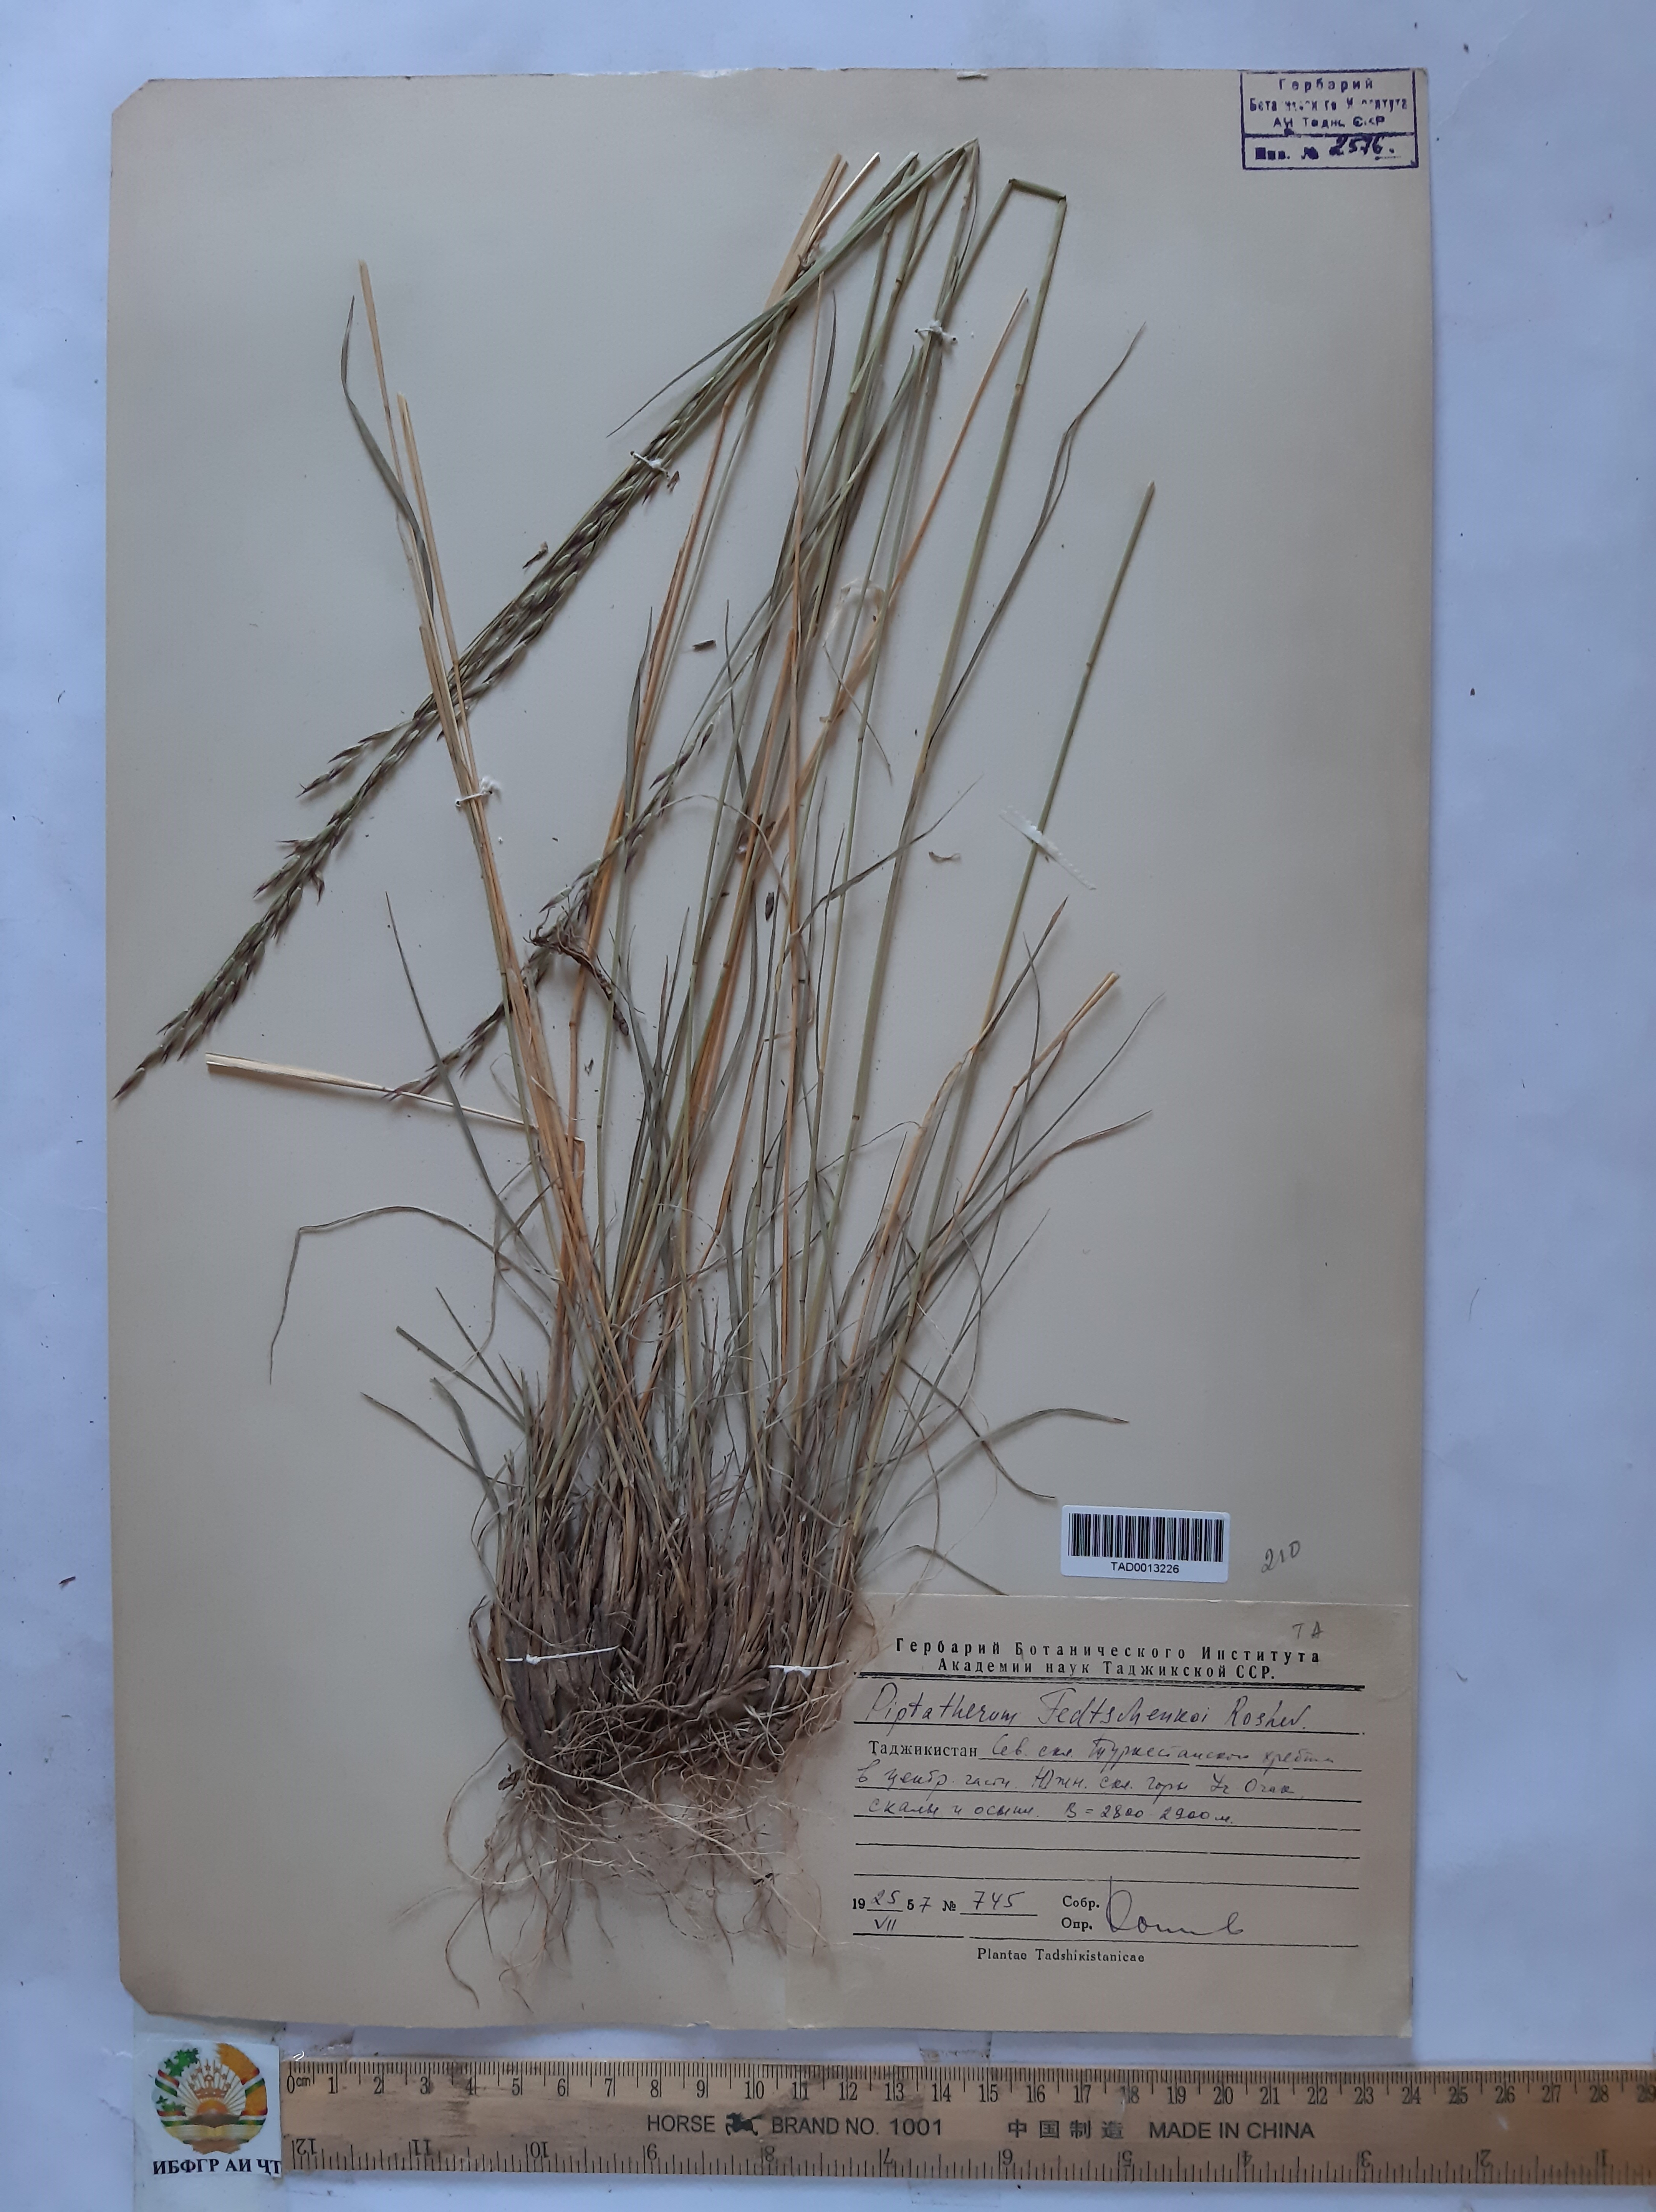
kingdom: Plantae
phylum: Tracheophyta
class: Liliopsida
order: Poales
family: Poaceae
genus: Piptatherum
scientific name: Piptatherum sogdianum
